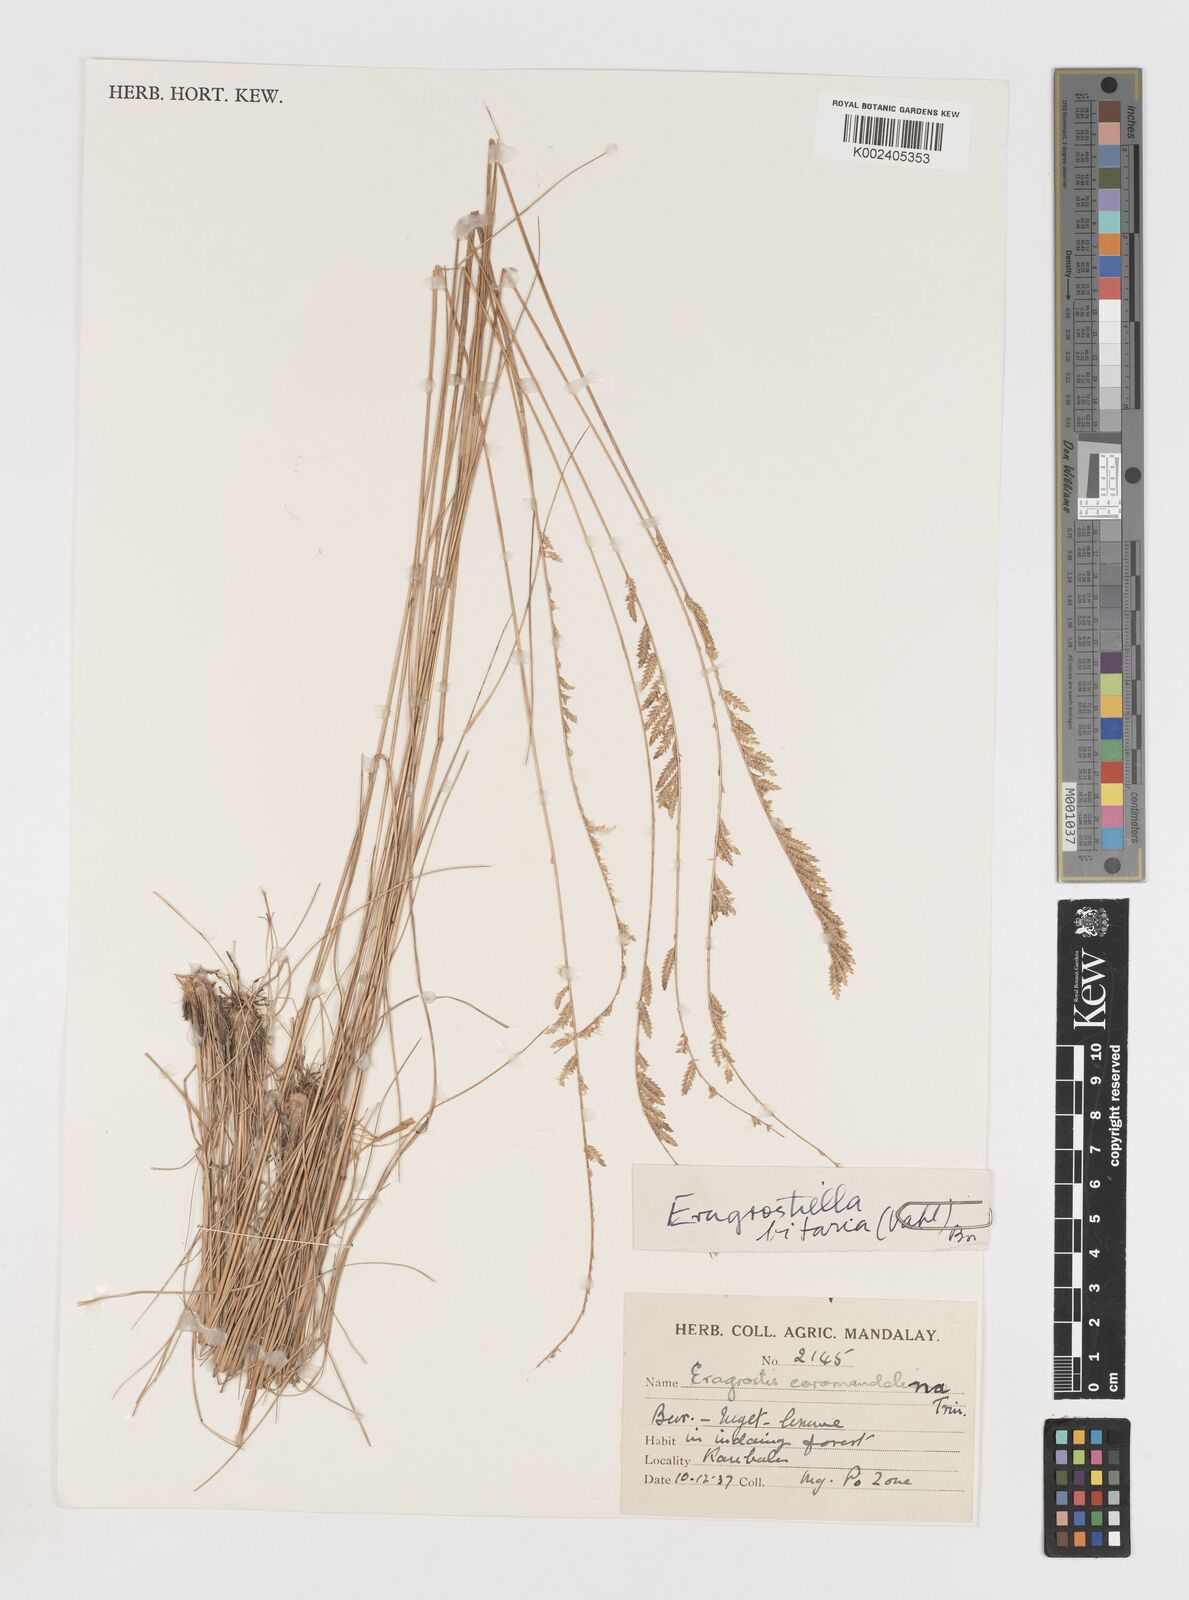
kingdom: Plantae
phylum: Tracheophyta
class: Liliopsida
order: Poales
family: Poaceae
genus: Eragrostiella
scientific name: Eragrostiella bifaria
